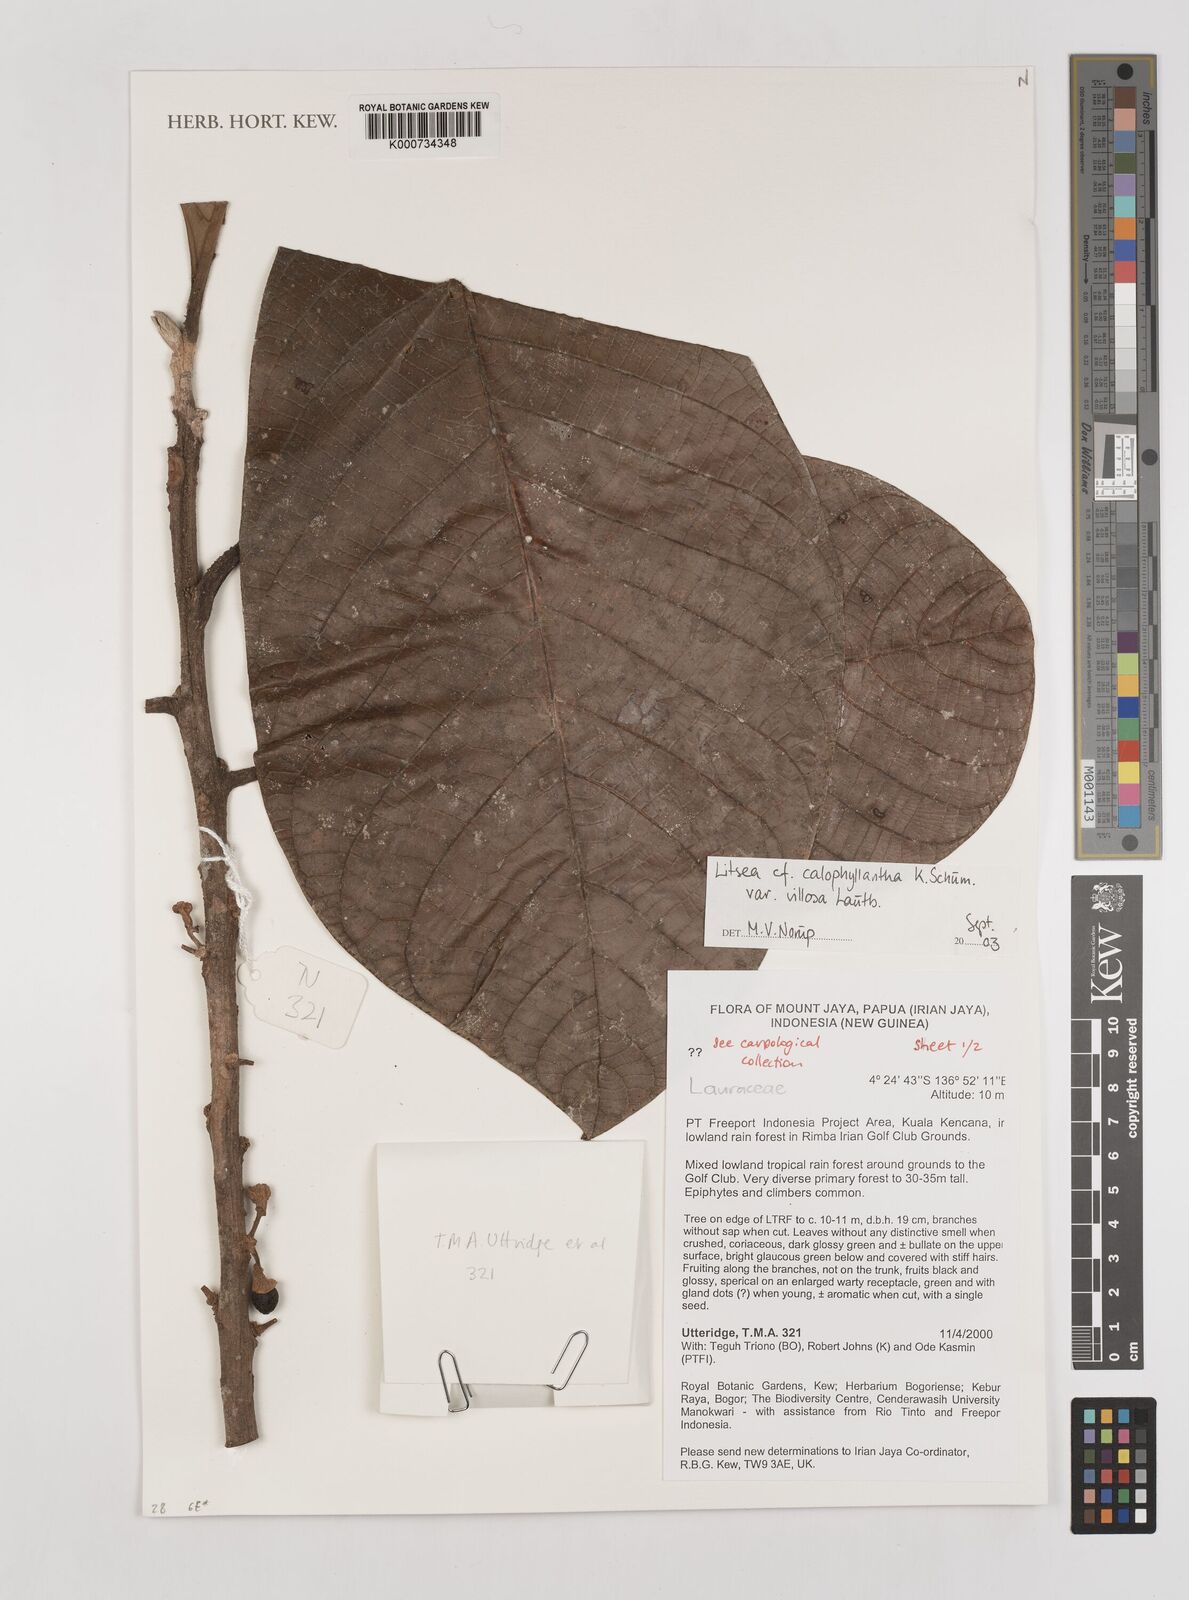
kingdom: Plantae
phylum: Tracheophyta
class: Magnoliopsida
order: Laurales
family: Lauraceae
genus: Litsea
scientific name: Litsea calophyllantha
